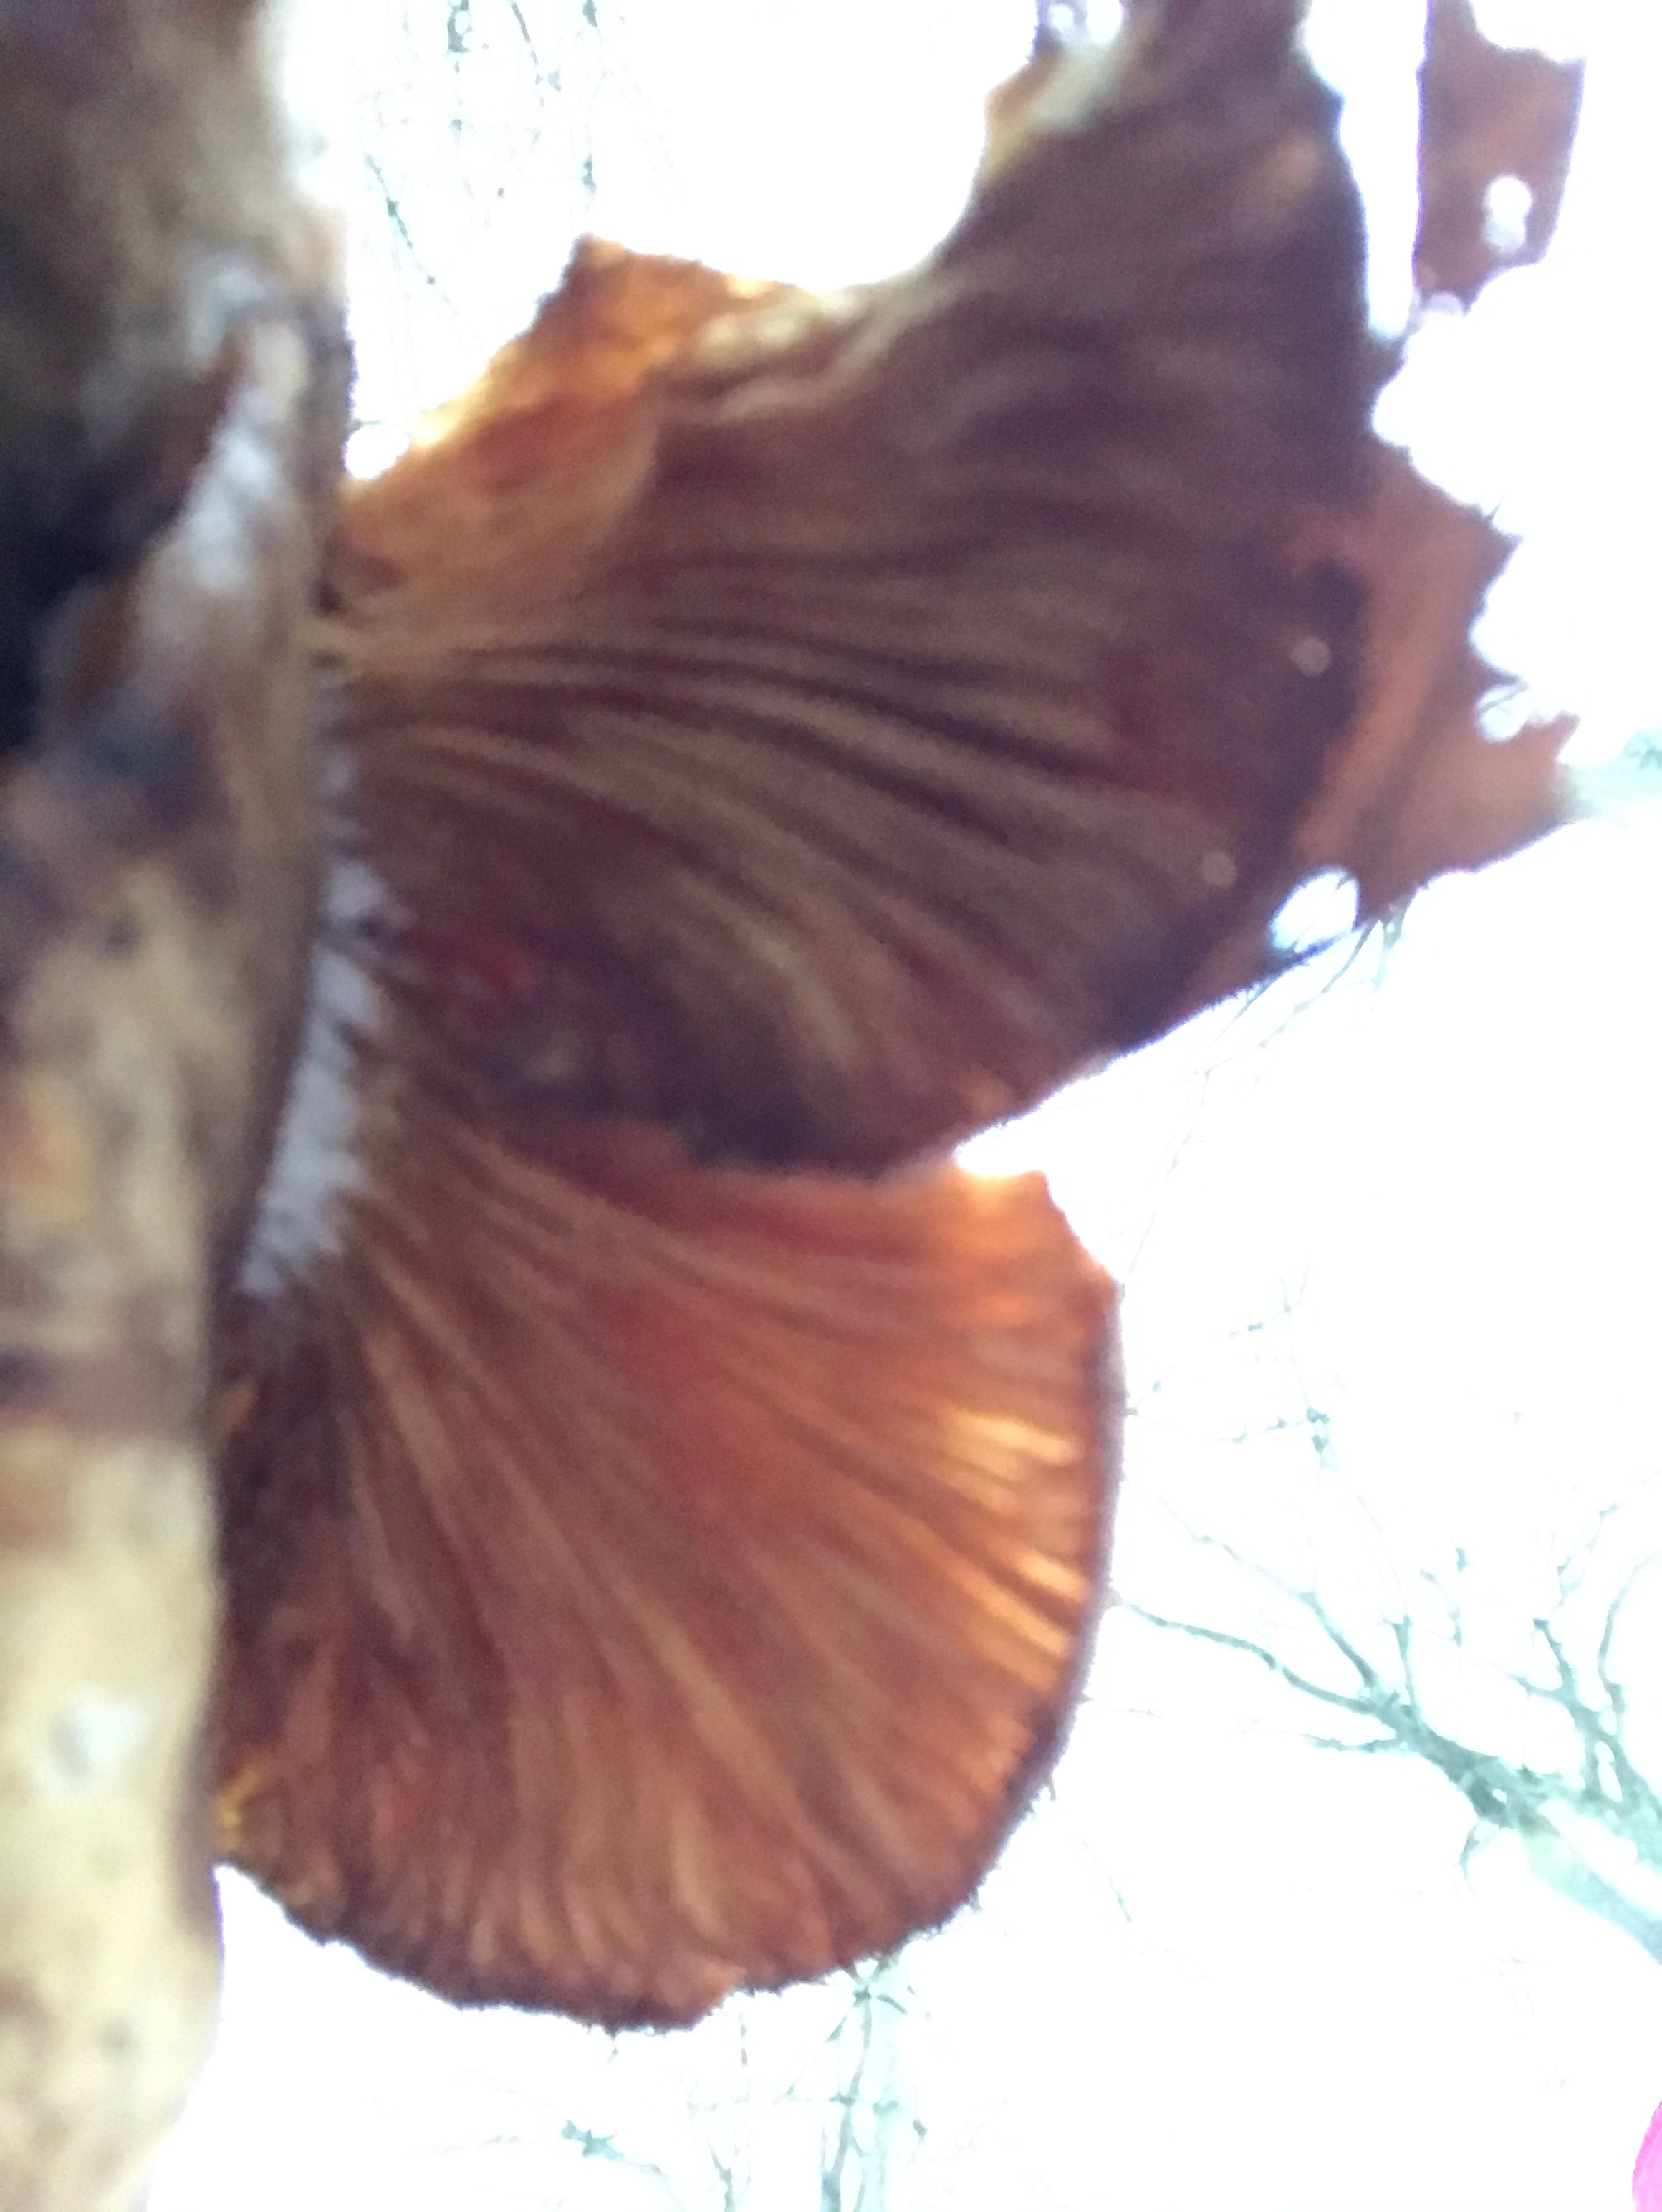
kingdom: Fungi
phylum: Basidiomycota
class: Agaricomycetes
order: Agaricales
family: Pleurotaceae
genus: Pleurotus
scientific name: Pleurotus ostreatus
